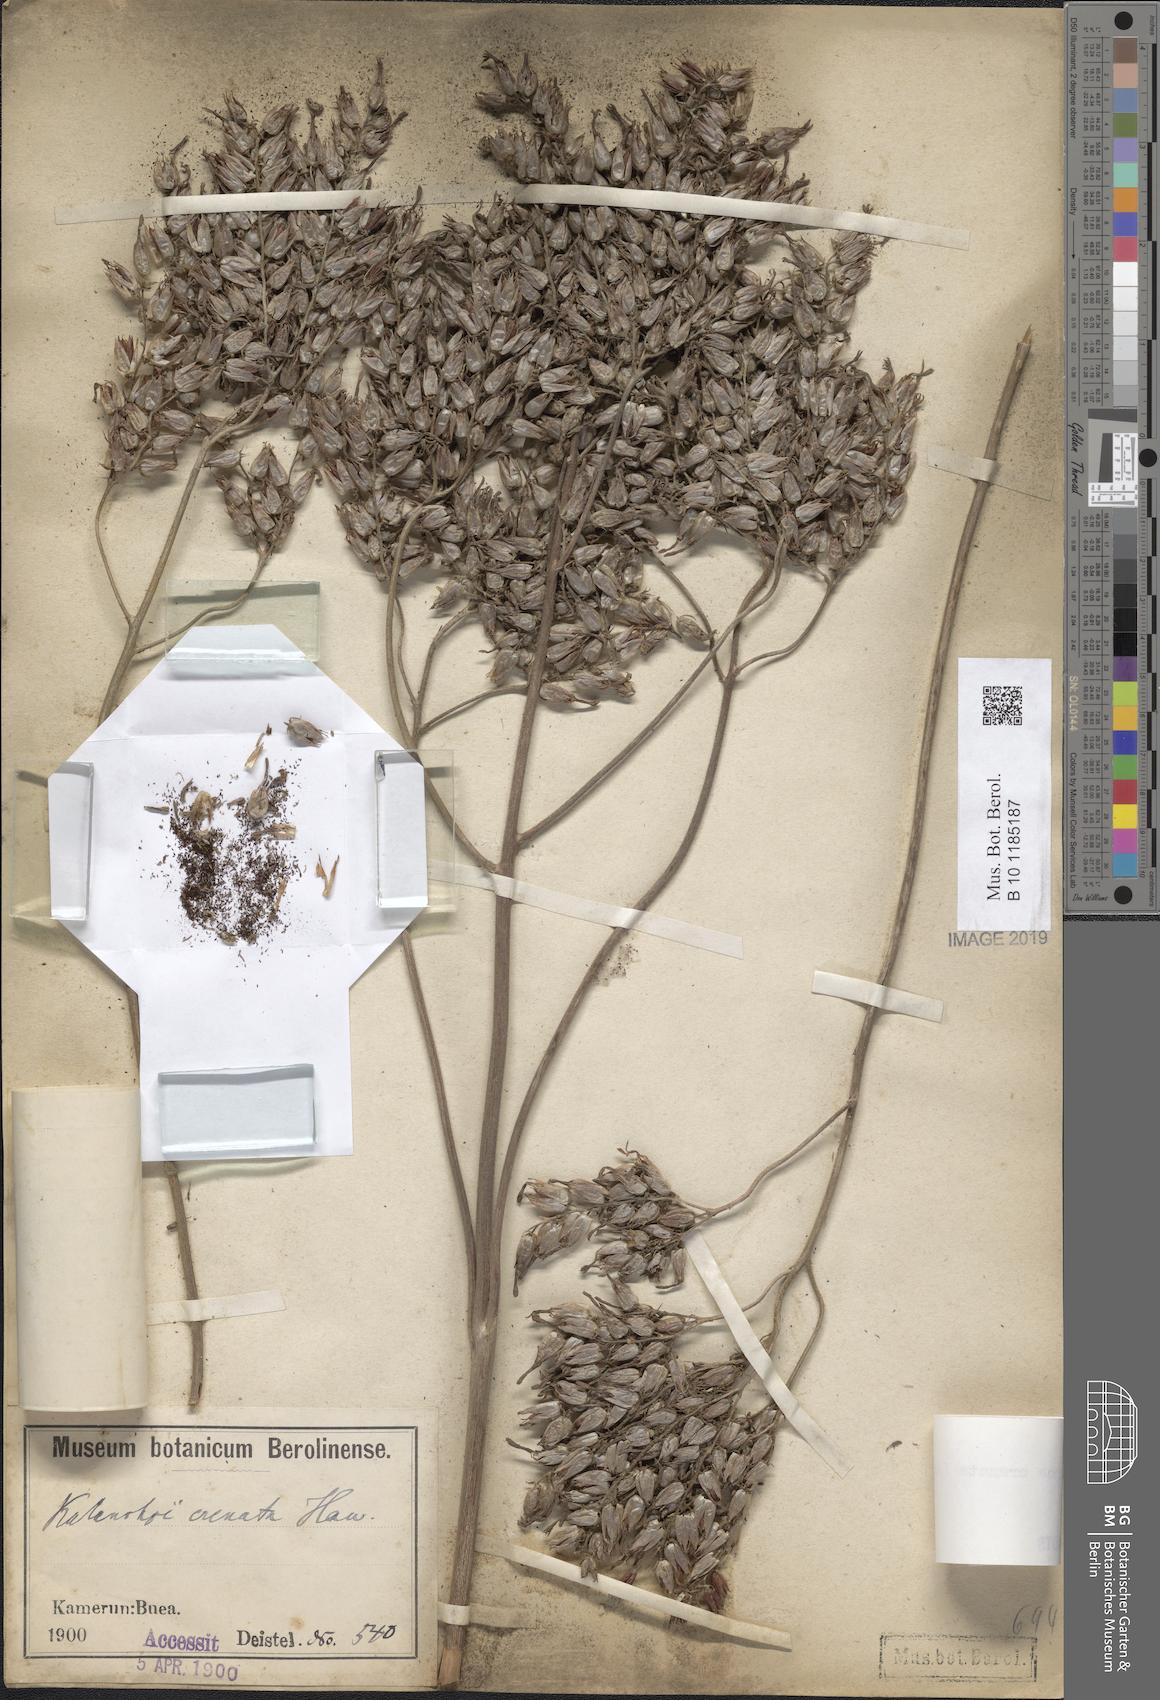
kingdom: Plantae
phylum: Tracheophyta
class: Magnoliopsida
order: Saxifragales
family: Crassulaceae
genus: Kalanchoe
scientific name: Kalanchoe crenata
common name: Neverdie
